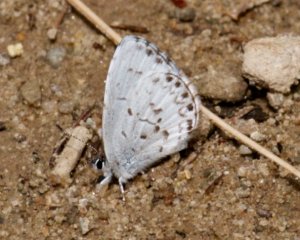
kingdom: Animalia
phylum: Arthropoda
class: Insecta
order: Lepidoptera
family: Lycaenidae
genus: Celastrina
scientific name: Celastrina
